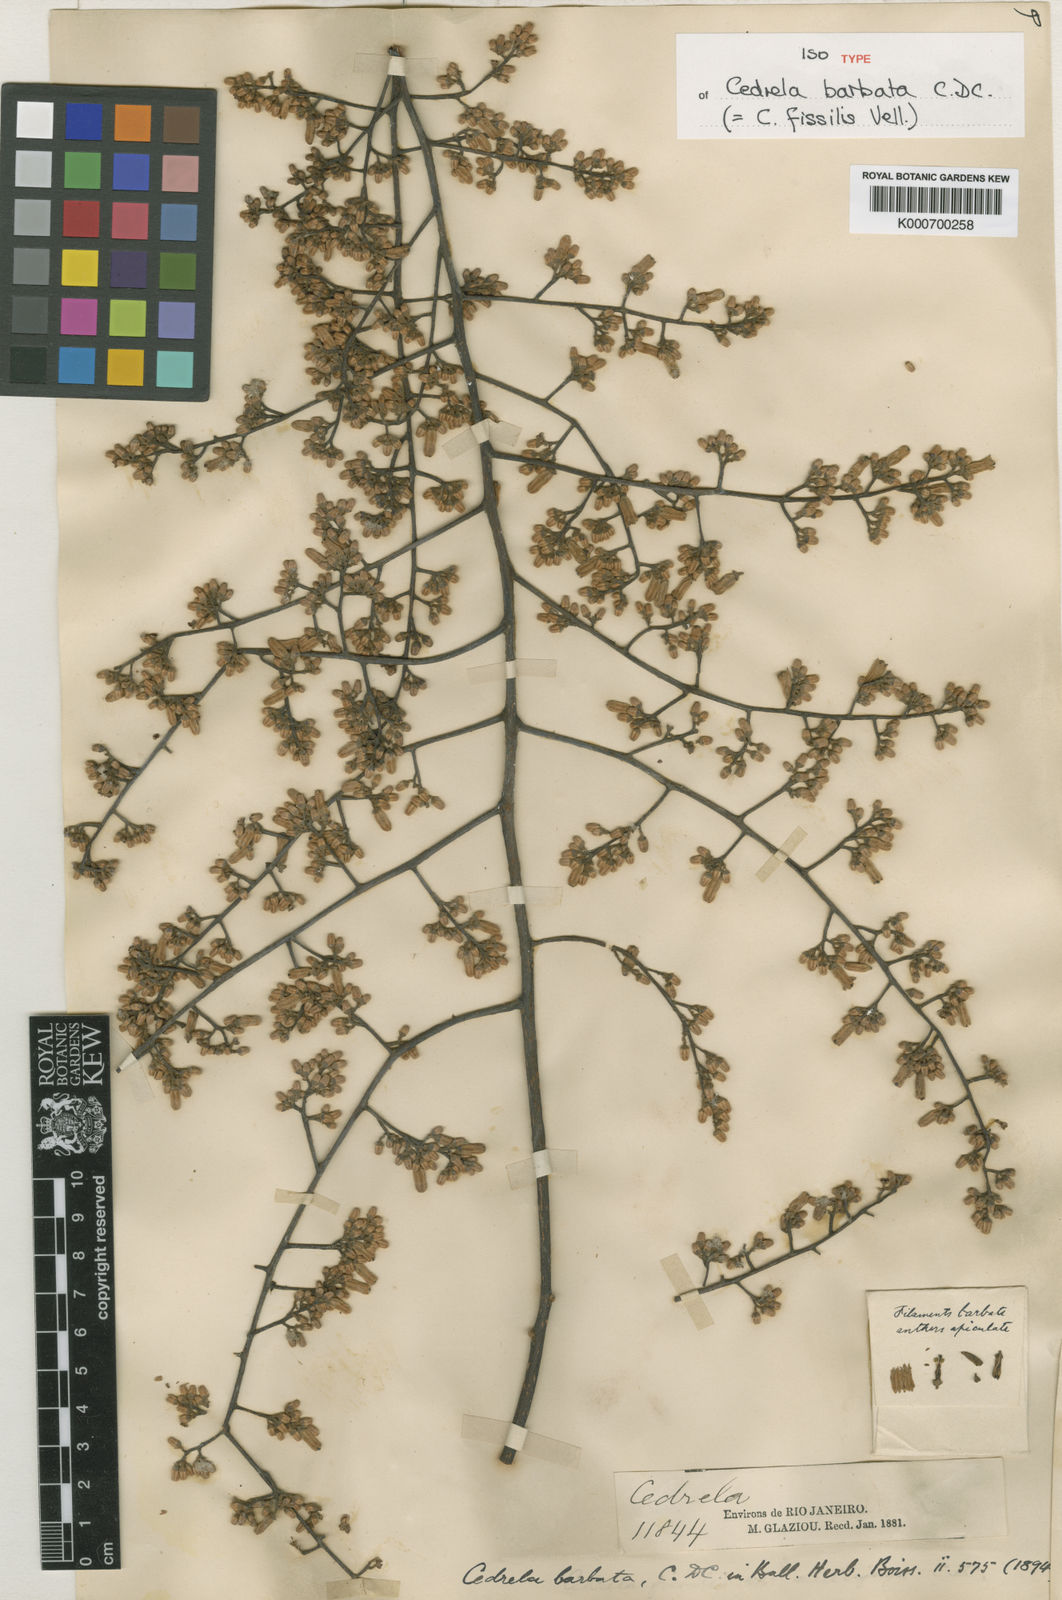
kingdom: Plantae
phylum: Tracheophyta
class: Magnoliopsida
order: Sapindales
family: Meliaceae
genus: Cedrela
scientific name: Cedrela fissilis
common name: Argentine cedar
